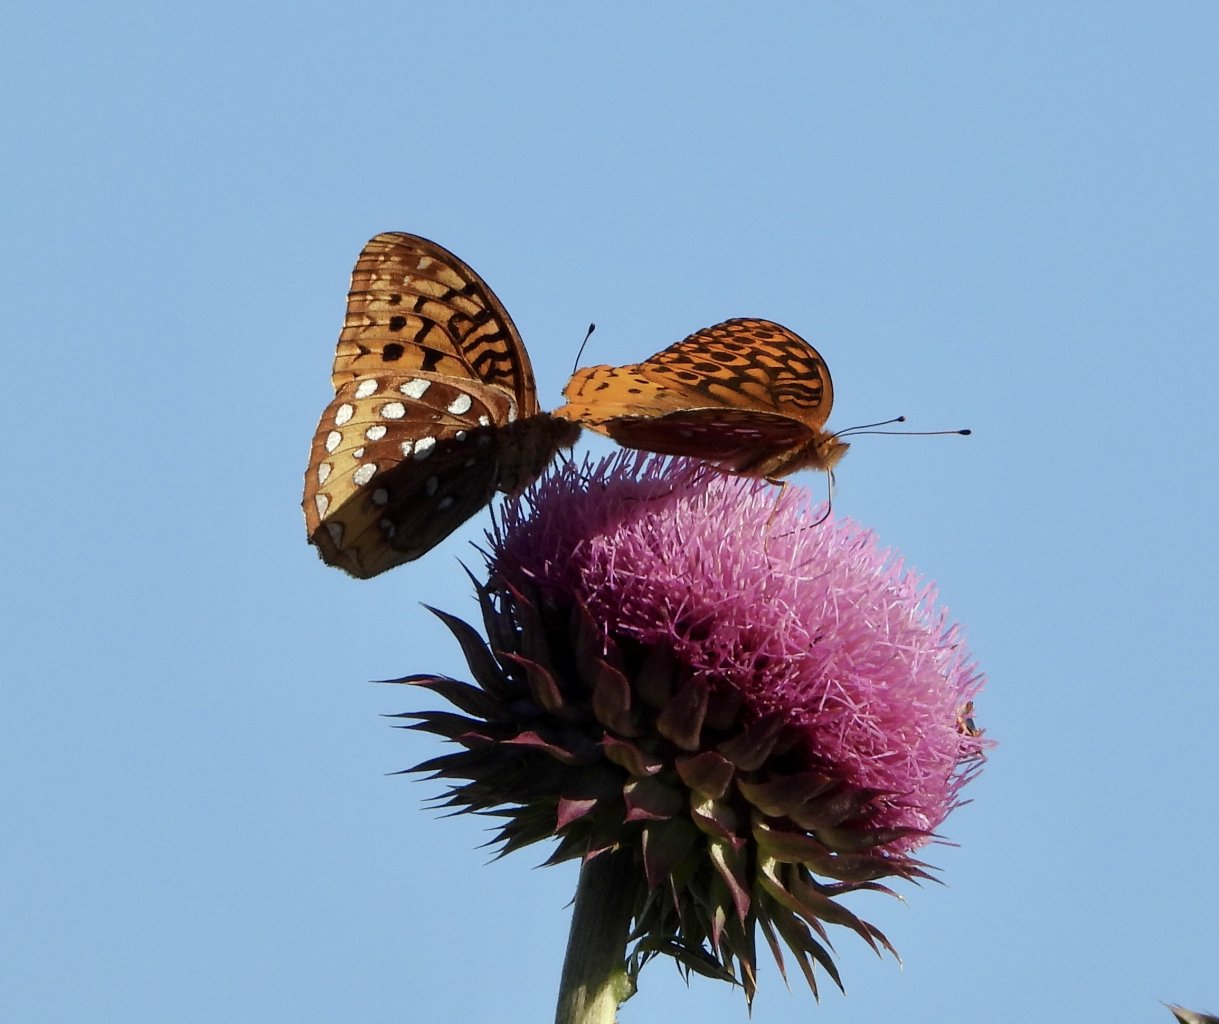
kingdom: Animalia
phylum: Arthropoda
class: Insecta
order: Lepidoptera
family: Nymphalidae
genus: Speyeria
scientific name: Speyeria cybele
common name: Great Spangled Fritillary
